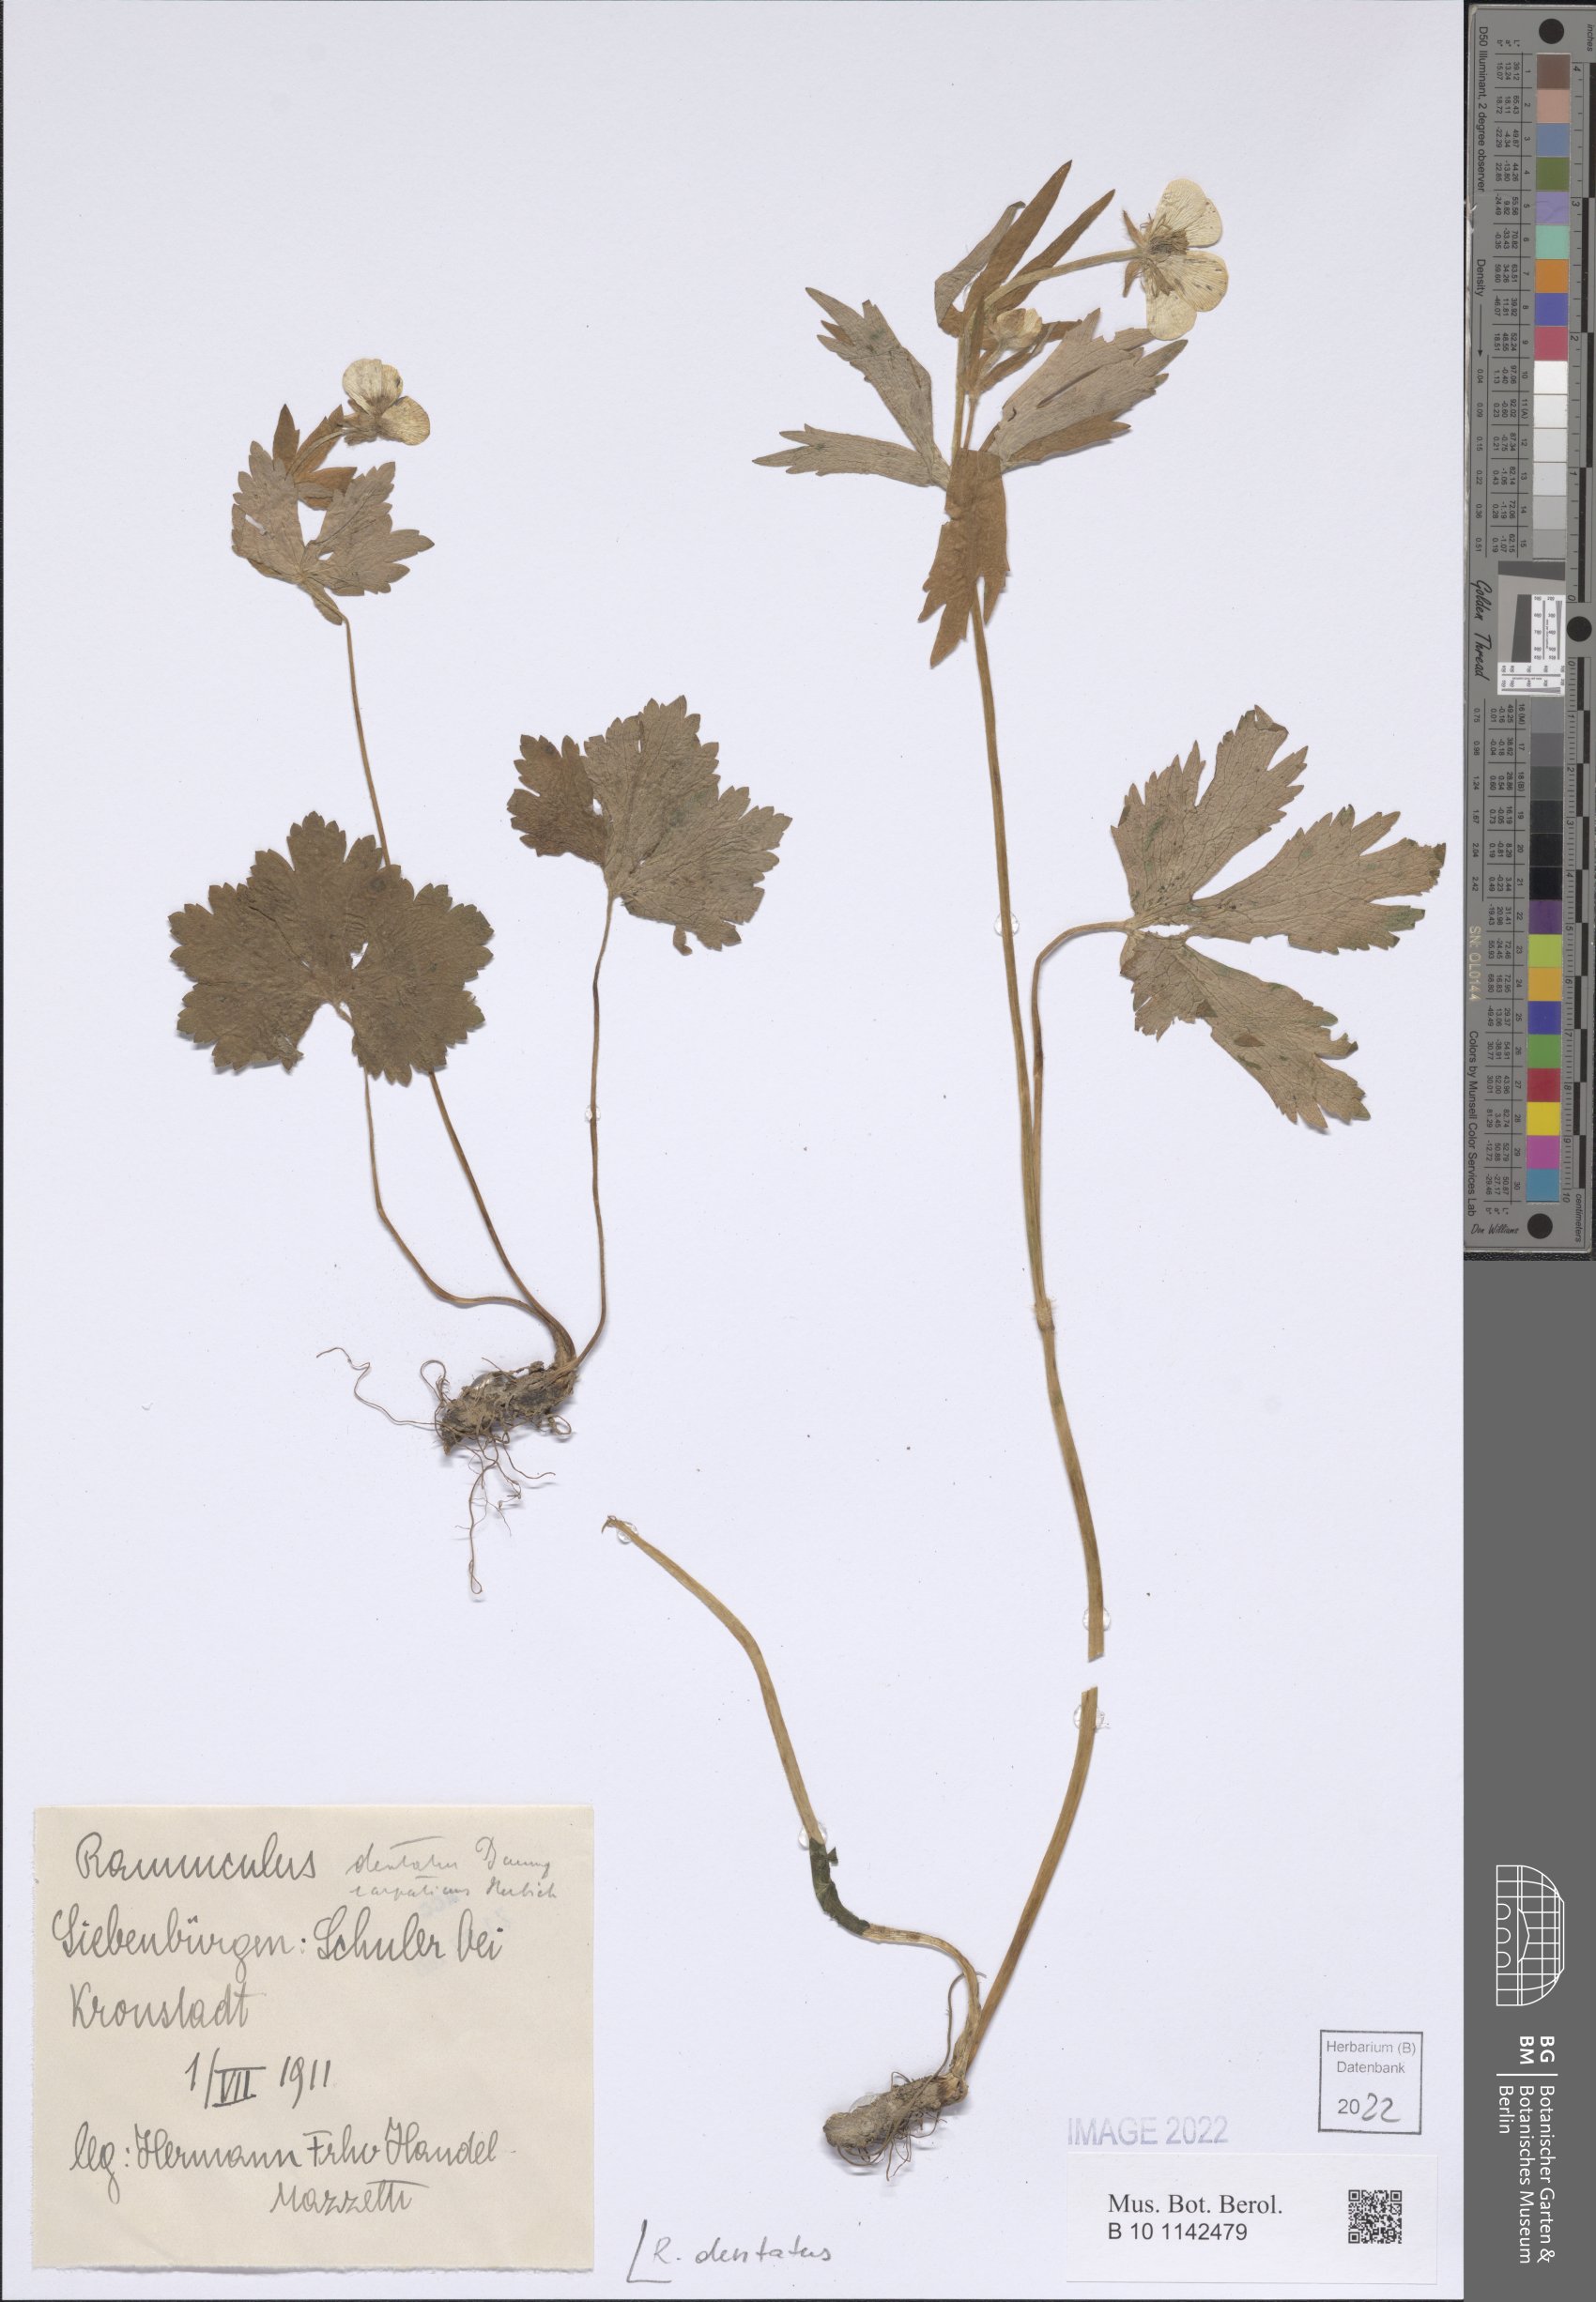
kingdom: Plantae
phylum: Tracheophyta
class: Magnoliopsida
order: Ranunculales
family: Ranunculaceae
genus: Ranunculus
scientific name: Ranunculus carpaticus
